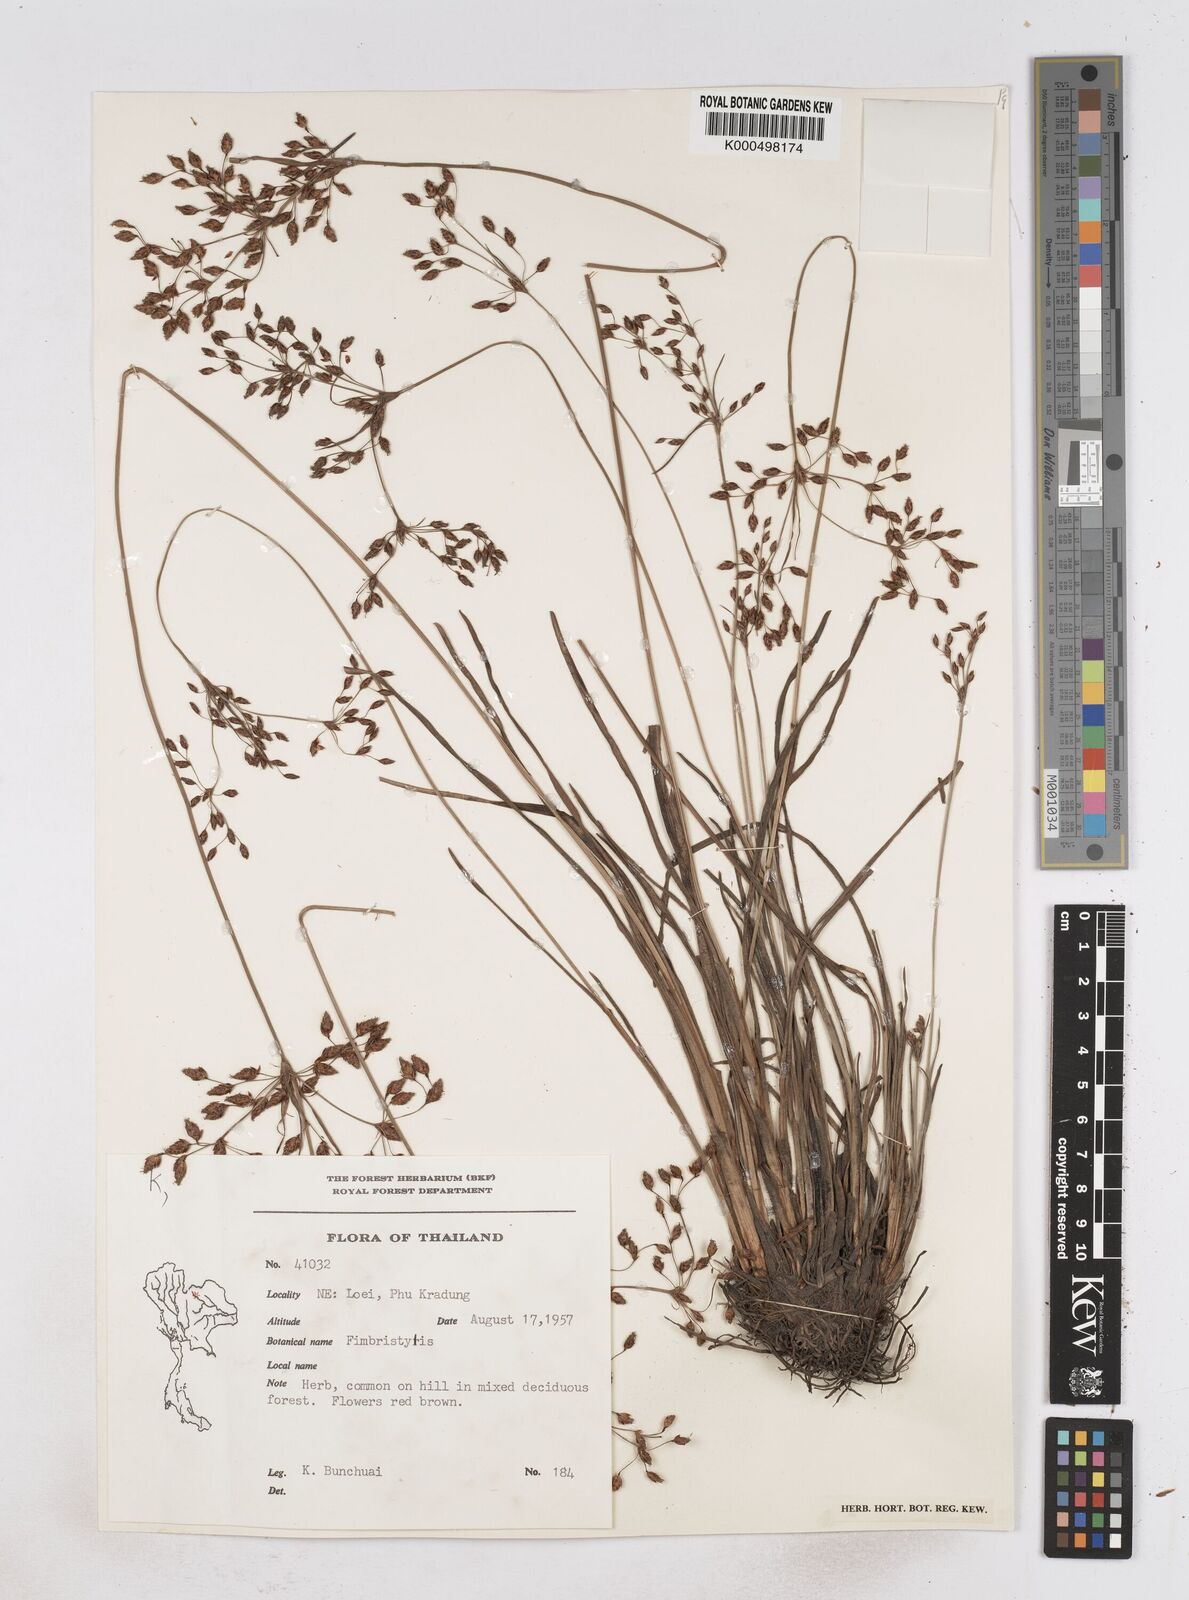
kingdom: Plantae
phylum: Tracheophyta
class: Liliopsida
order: Poales
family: Cyperaceae
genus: Fimbristylis
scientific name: Fimbristylis dichotoma
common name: Forked fimbry
